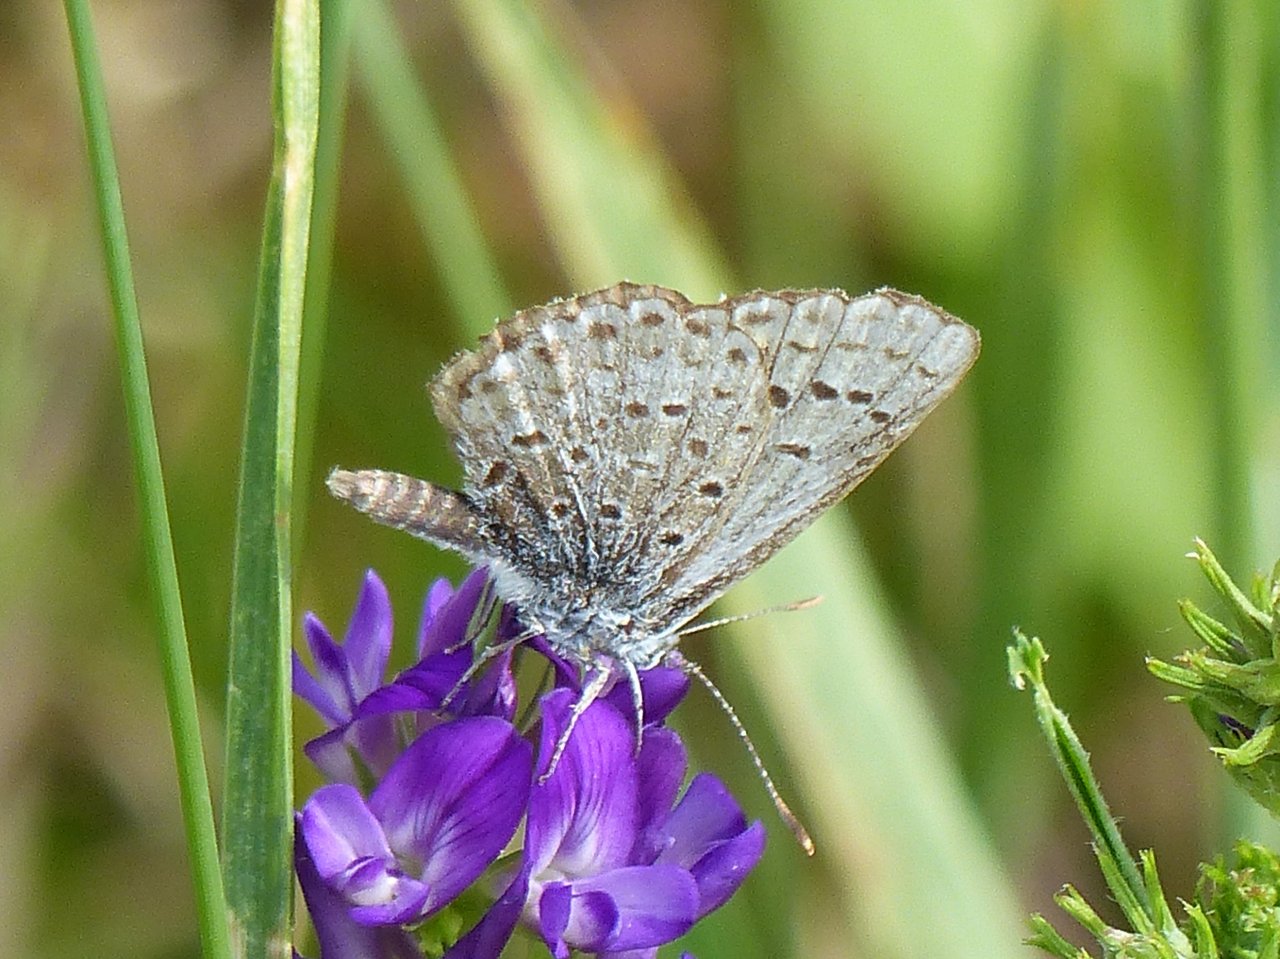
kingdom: Animalia
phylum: Arthropoda
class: Insecta
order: Lepidoptera
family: Lycaenidae
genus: Celastrina
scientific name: Celastrina ladon
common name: Echo Azure
